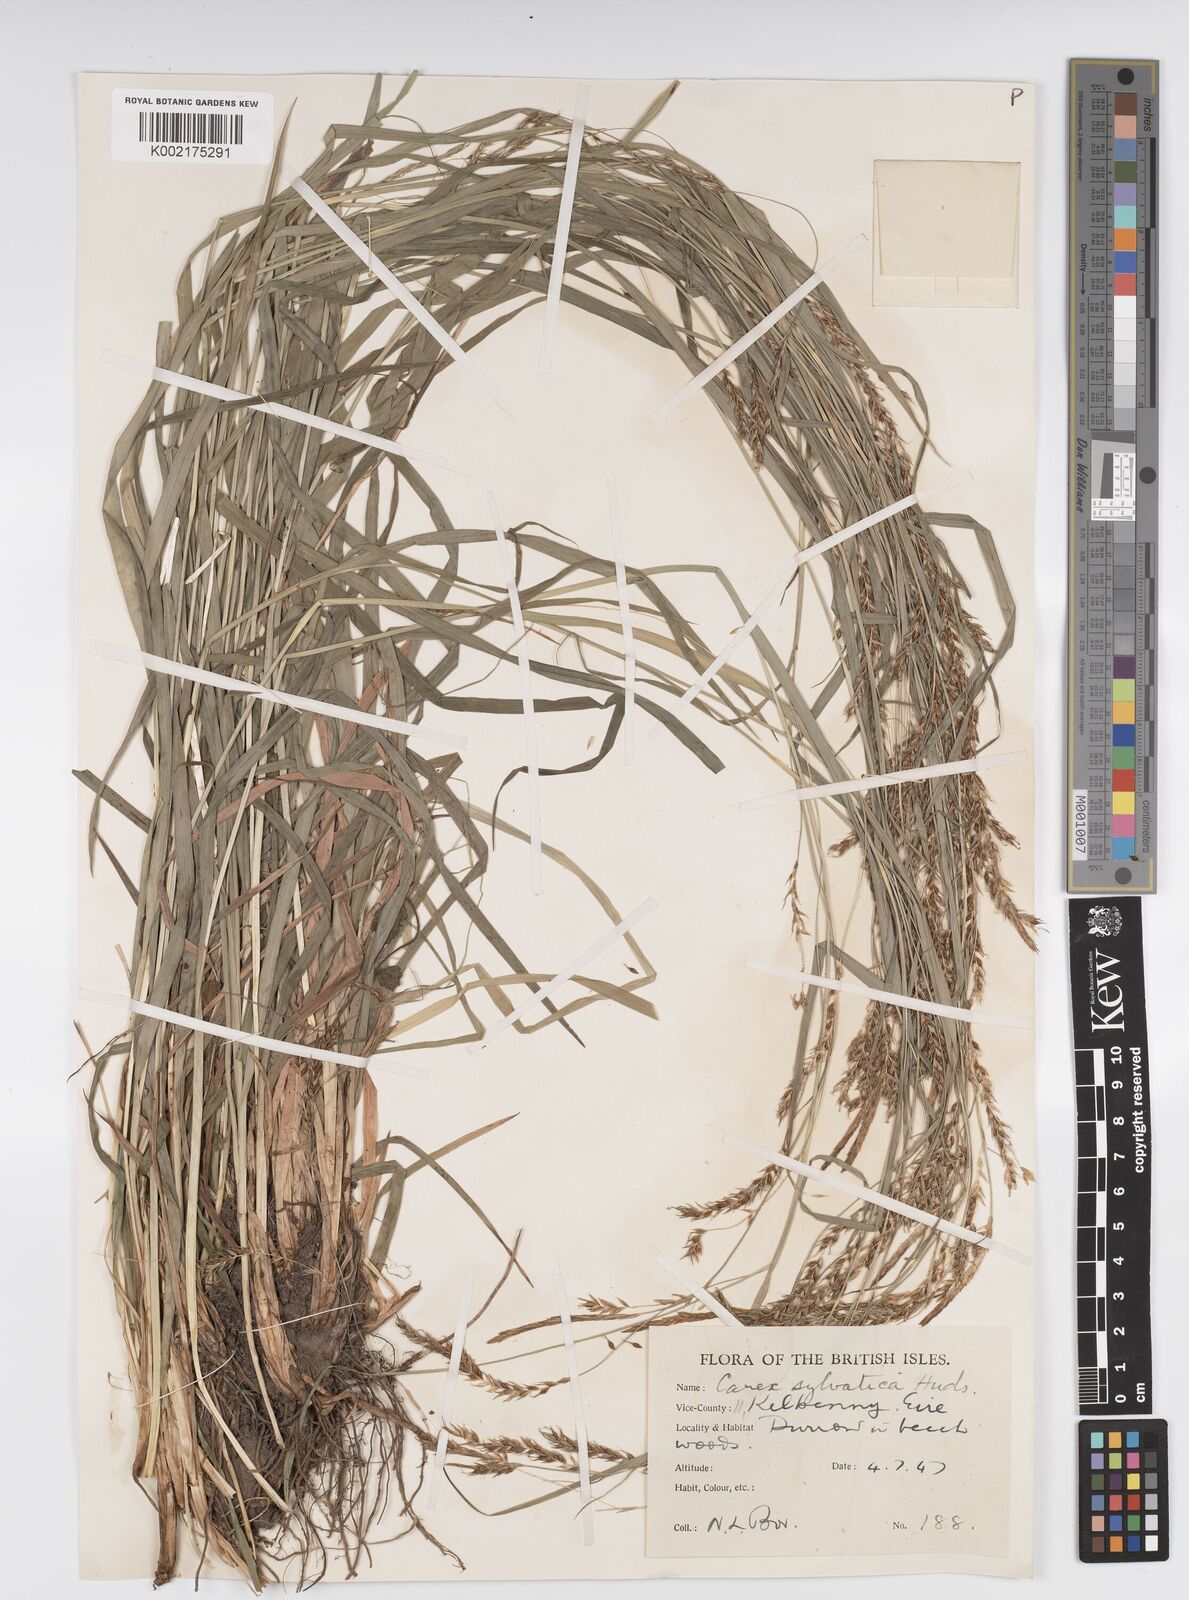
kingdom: Plantae
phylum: Tracheophyta
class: Liliopsida
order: Poales
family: Cyperaceae
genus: Carex
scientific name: Carex sylvatica
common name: Wood-sedge
